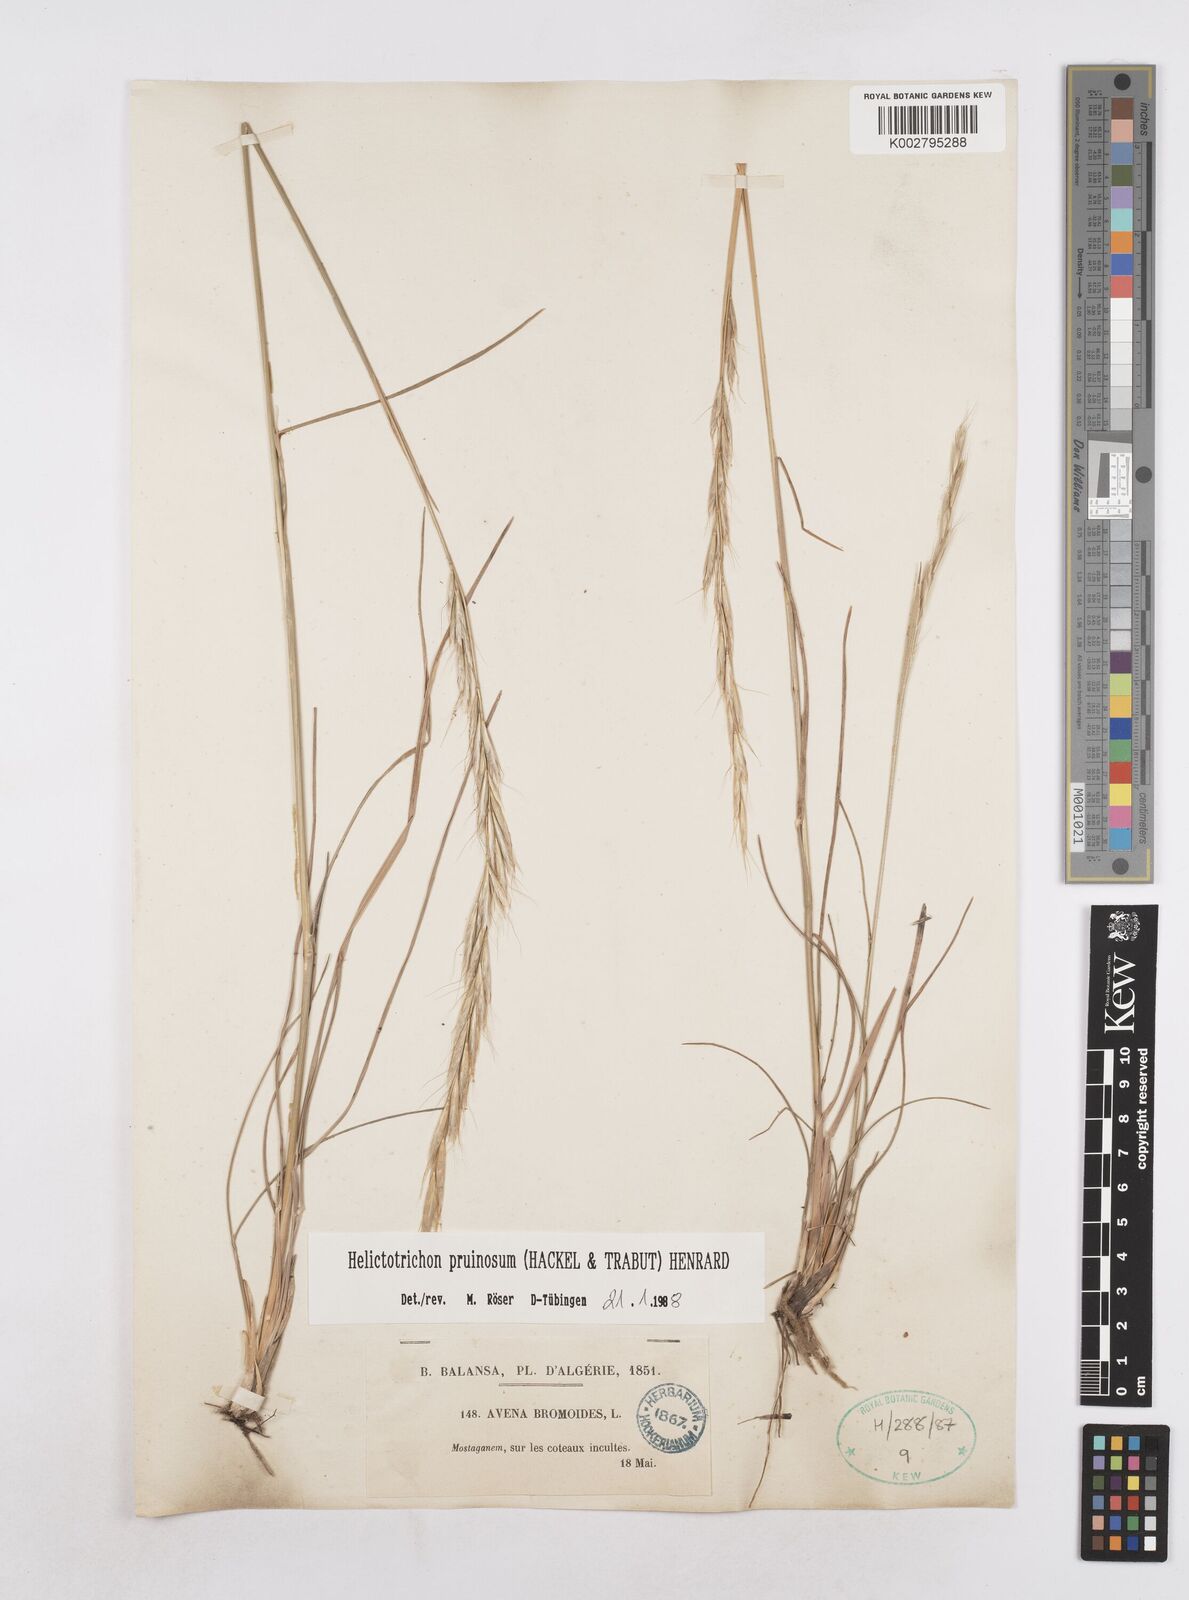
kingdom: Plantae
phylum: Tracheophyta
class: Liliopsida
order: Poales
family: Poaceae
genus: Helictochloa
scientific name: Helictochloa pruinosa
